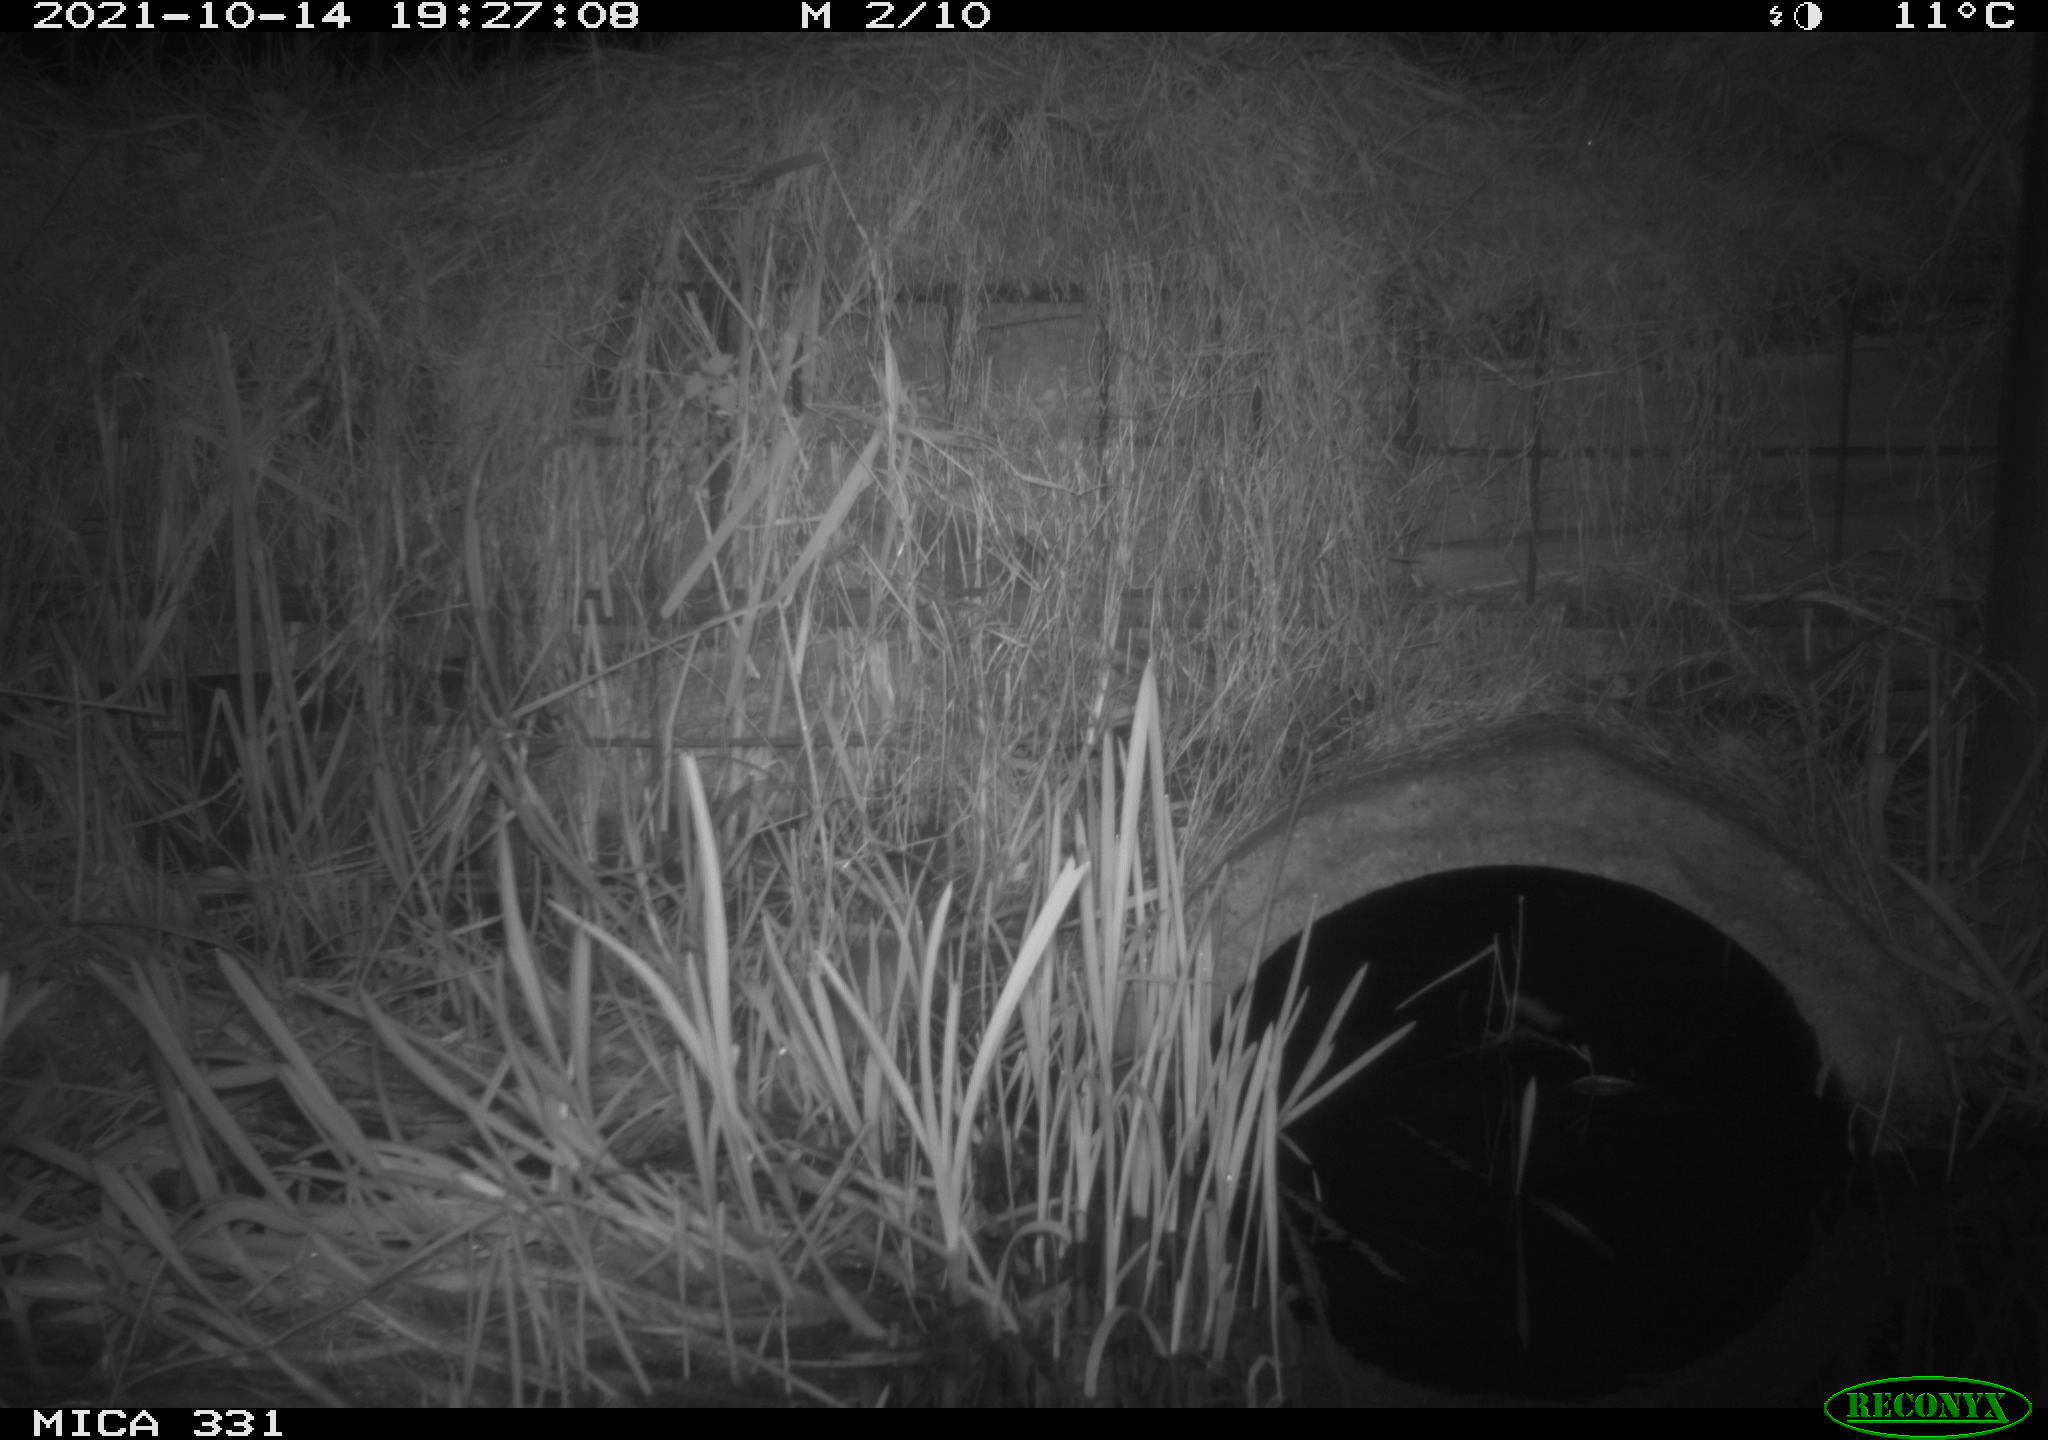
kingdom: Animalia
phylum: Chordata
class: Mammalia
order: Rodentia
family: Muridae
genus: Rattus
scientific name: Rattus norvegicus
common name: Brown rat
